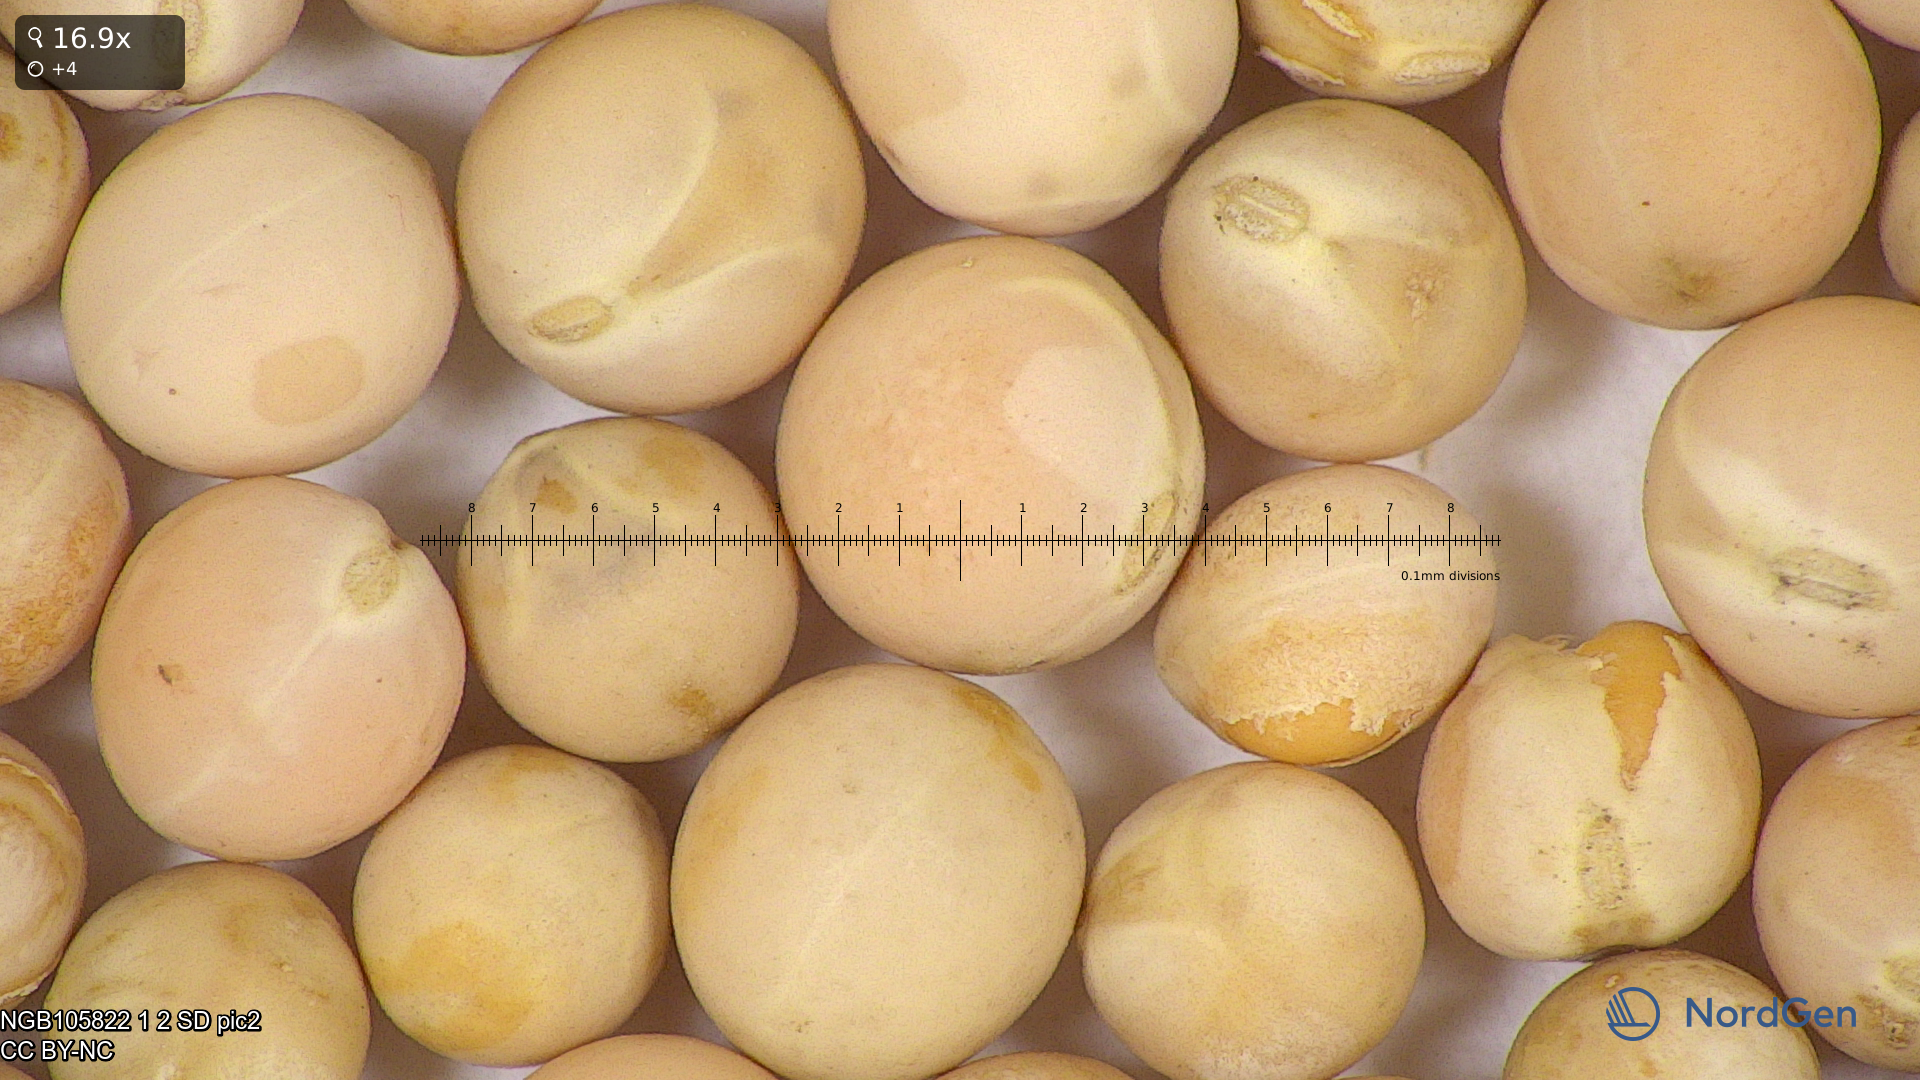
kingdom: Plantae
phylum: Tracheophyta
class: Magnoliopsida
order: Fabales
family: Fabaceae
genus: Lathyrus
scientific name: Lathyrus oleraceus
